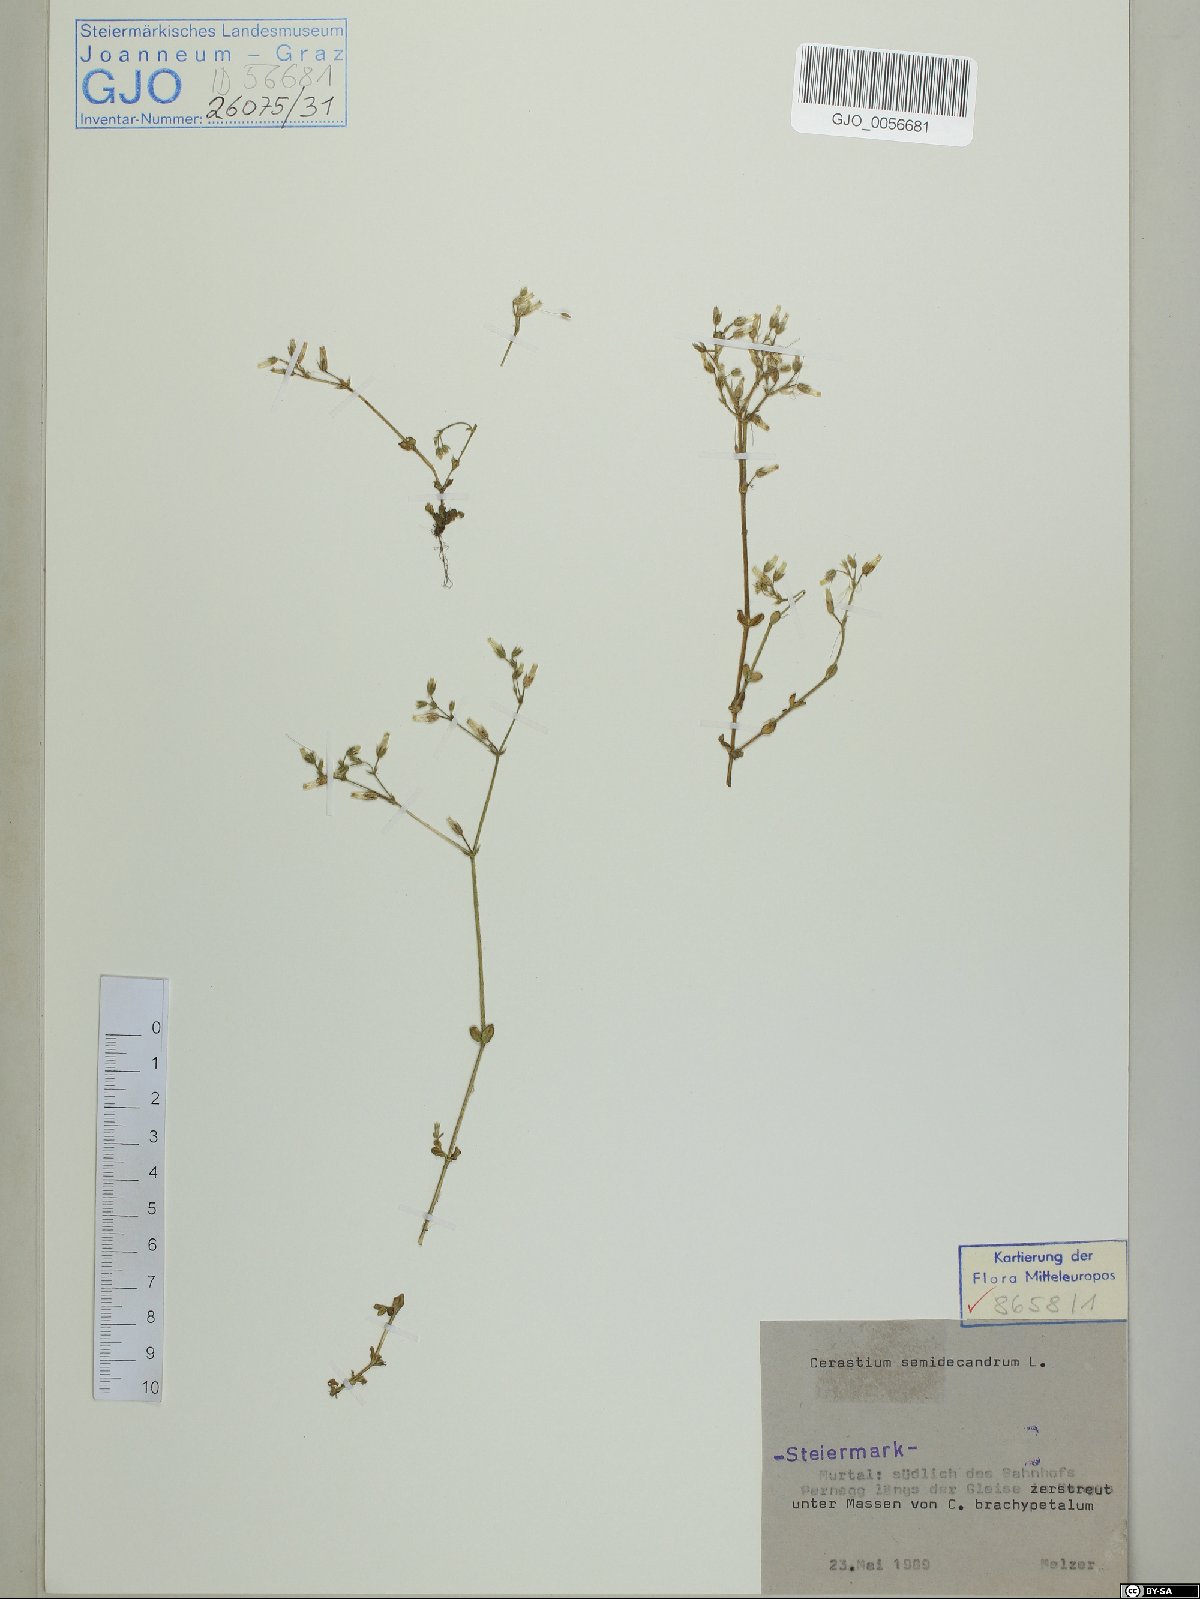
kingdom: Plantae
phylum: Tracheophyta
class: Magnoliopsida
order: Caryophyllales
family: Caryophyllaceae
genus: Cerastium
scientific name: Cerastium semidecandrum
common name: Little mouse-ear
